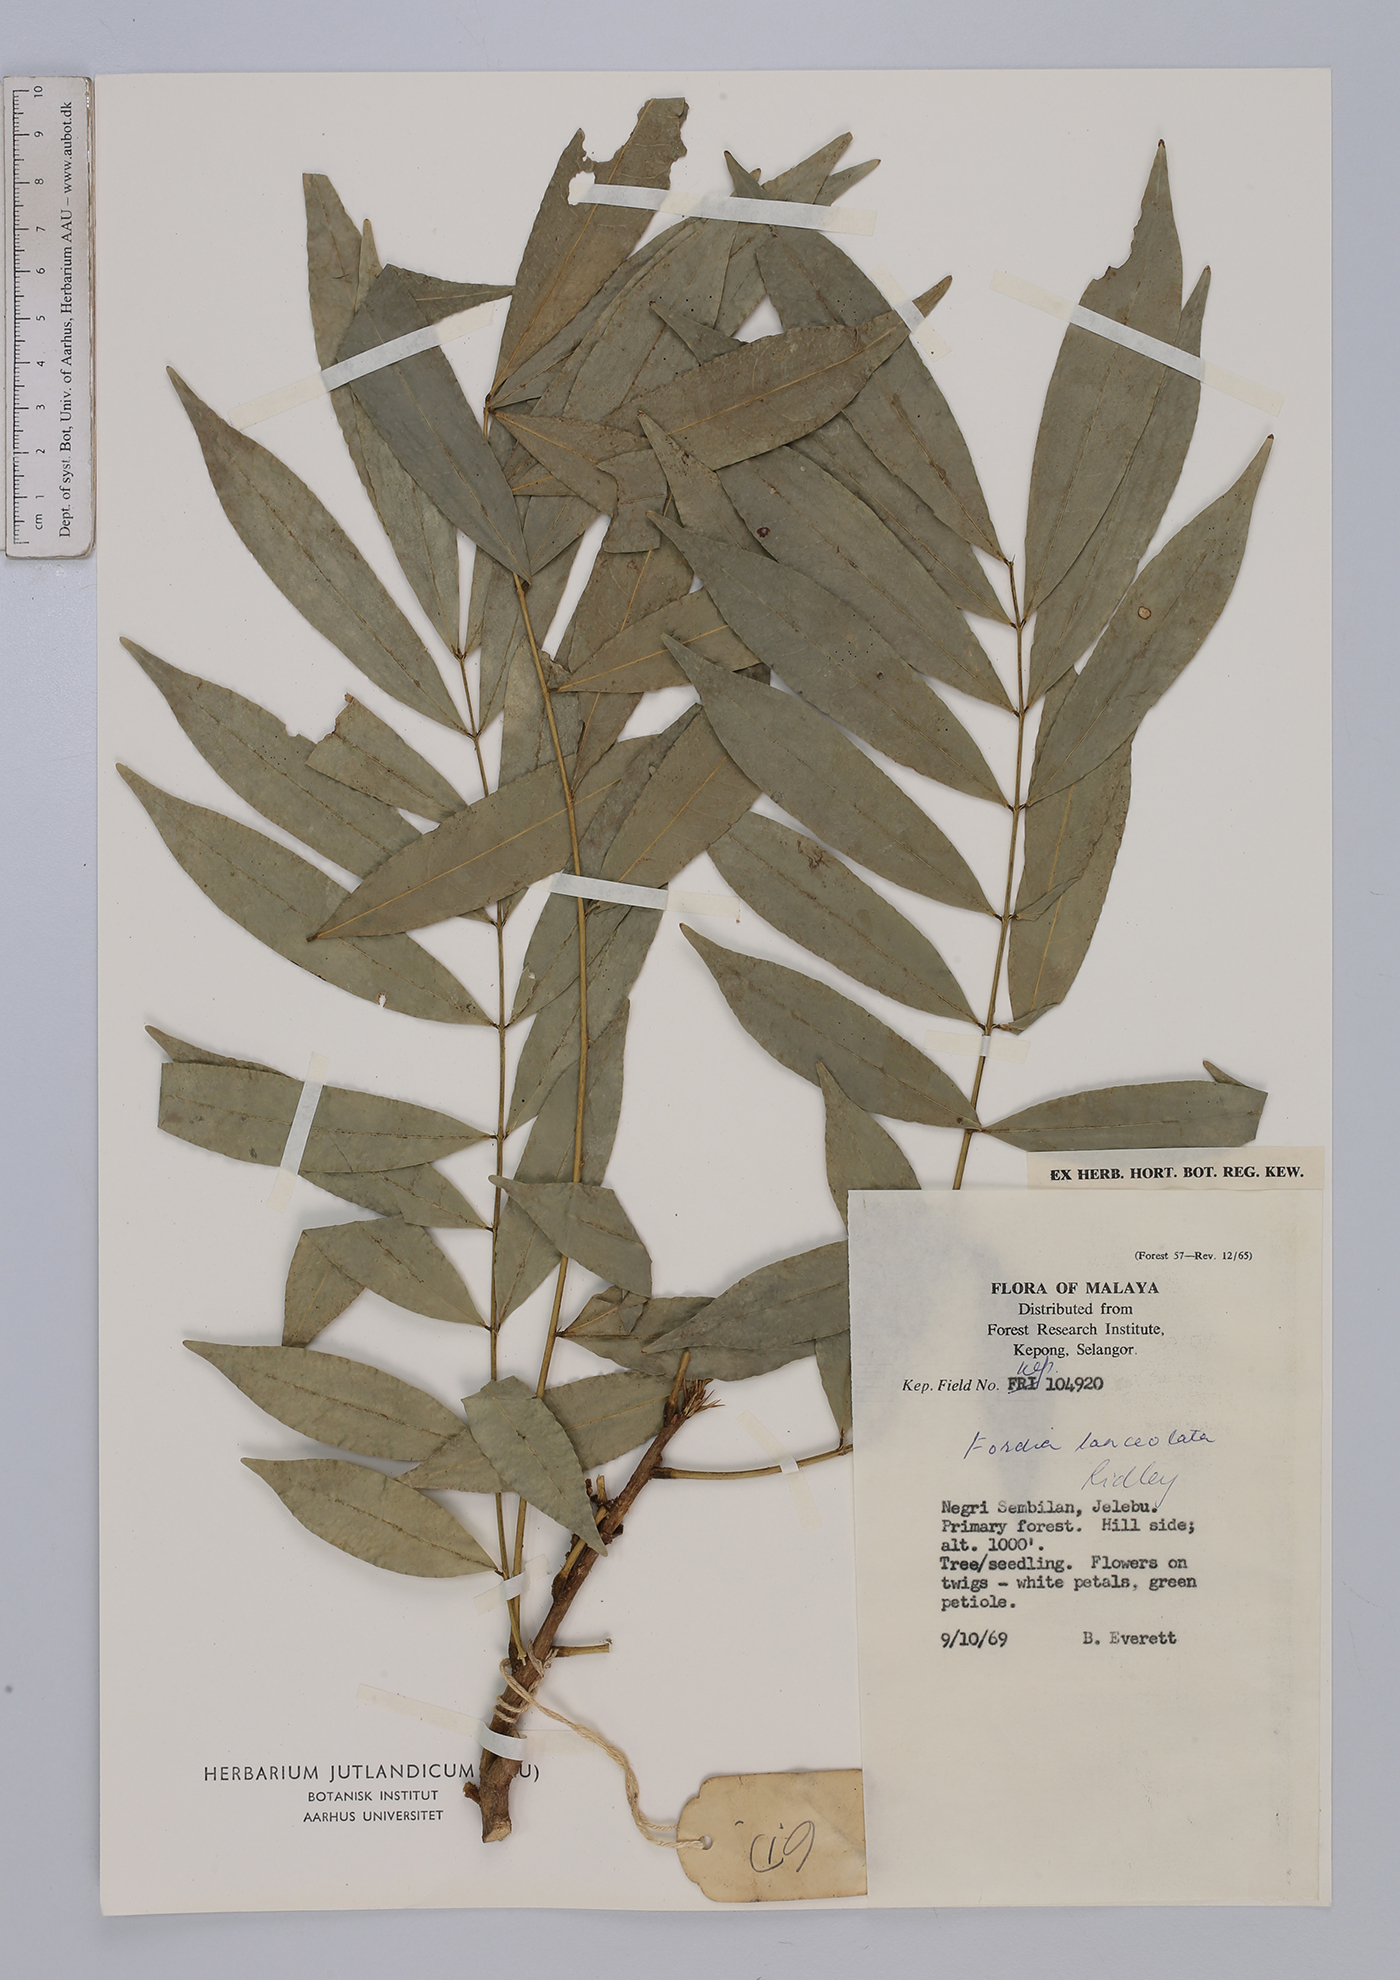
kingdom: Plantae
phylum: Tracheophyta
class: Magnoliopsida
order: Fabales
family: Fabaceae
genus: Fordia
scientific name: Fordia lanceolata
